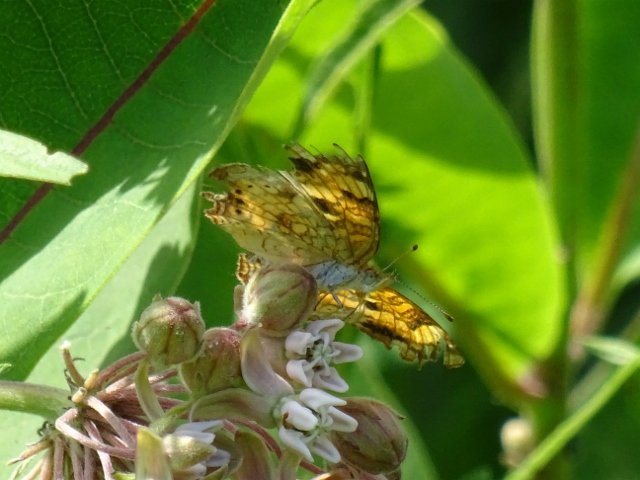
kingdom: Animalia
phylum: Arthropoda
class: Insecta
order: Lepidoptera
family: Nymphalidae
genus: Phyciodes
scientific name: Phyciodes tharos
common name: Pearl Crescent
